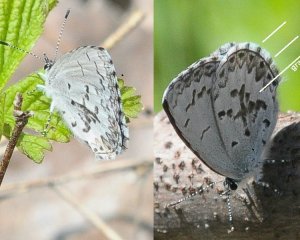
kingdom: Animalia
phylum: Arthropoda
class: Insecta
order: Lepidoptera
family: Lycaenidae
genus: Celastrina
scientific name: Celastrina lucia
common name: Northern Spring Azure
